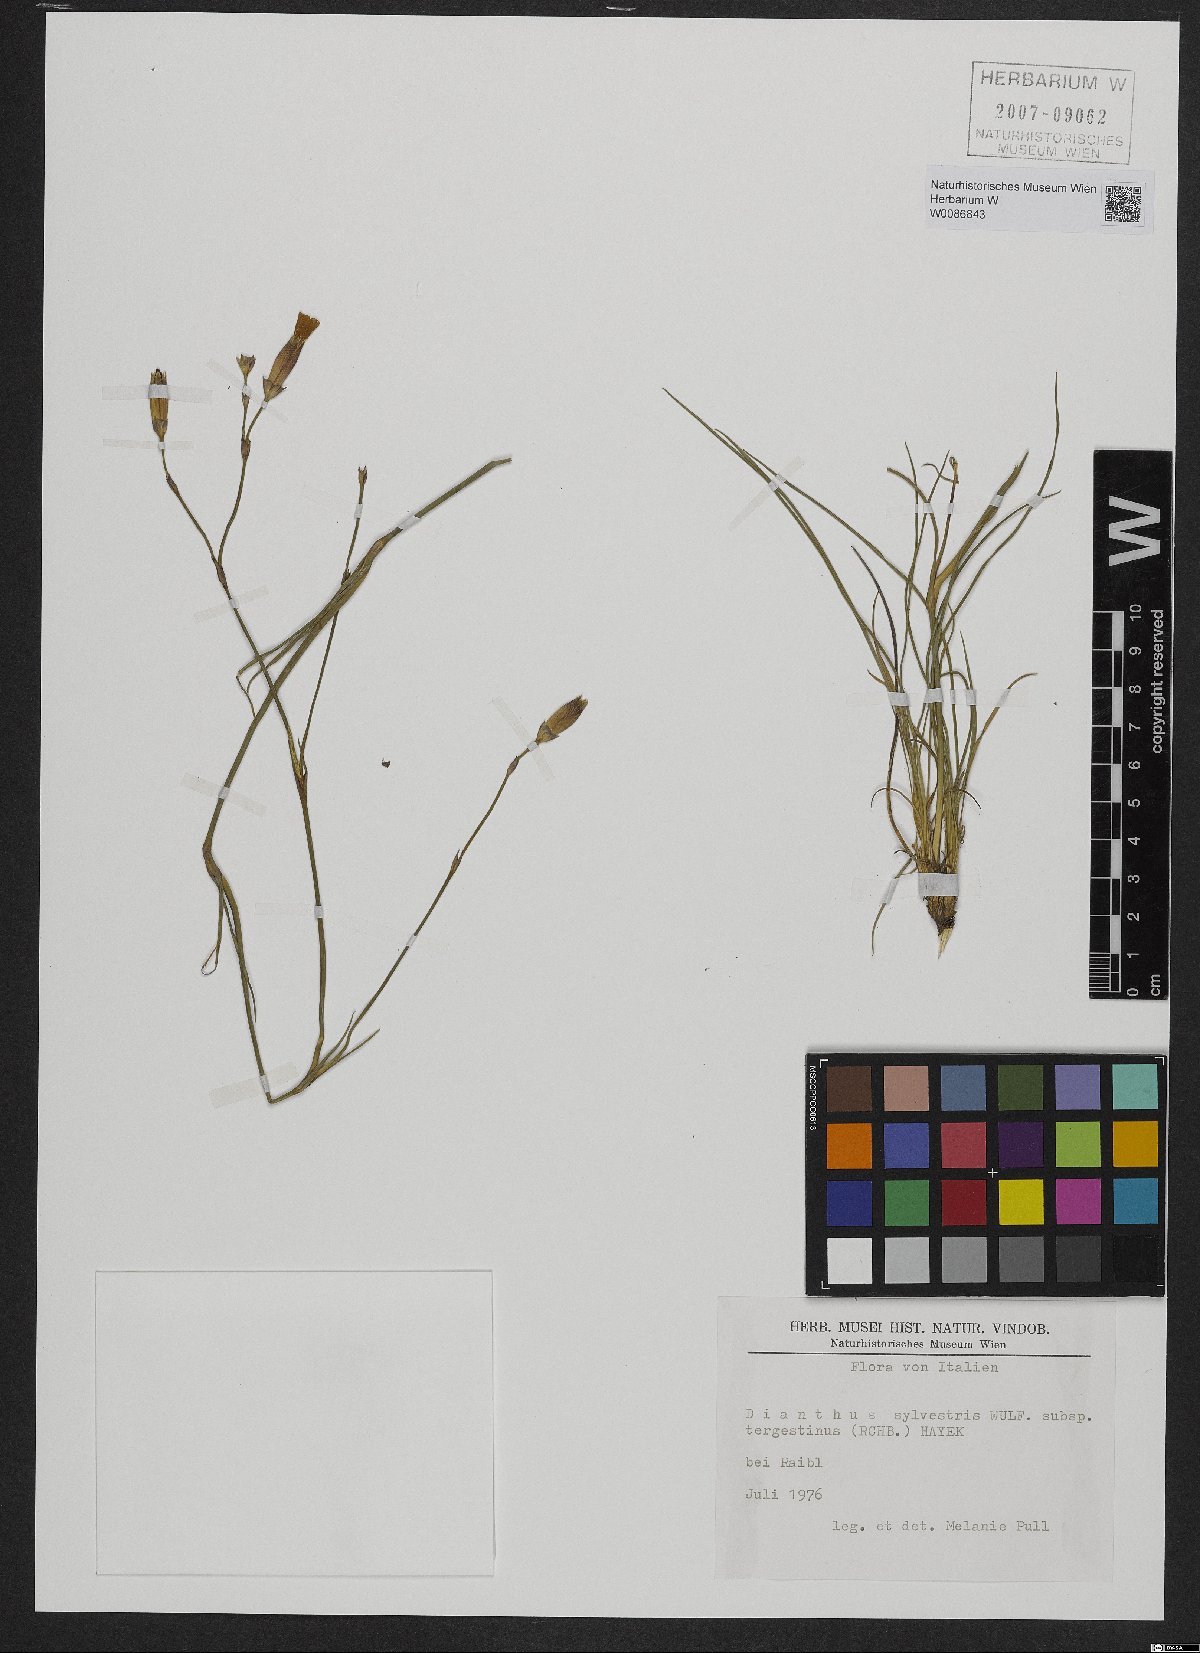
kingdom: Plantae
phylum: Tracheophyta
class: Magnoliopsida
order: Caryophyllales
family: Caryophyllaceae
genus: Dianthus
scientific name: Dianthus sylvestris
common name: Wood pink
